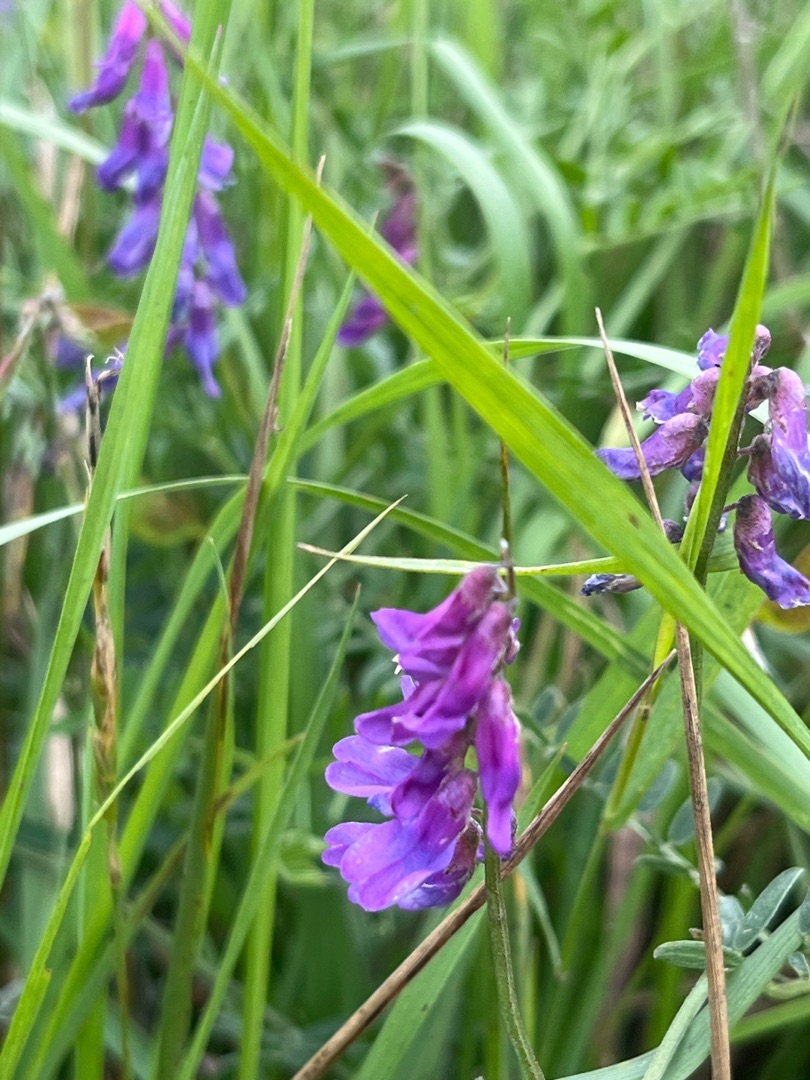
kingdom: Plantae
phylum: Tracheophyta
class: Magnoliopsida
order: Fabales
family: Fabaceae
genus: Vicia
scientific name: Vicia cracca
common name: Muse-vikke
